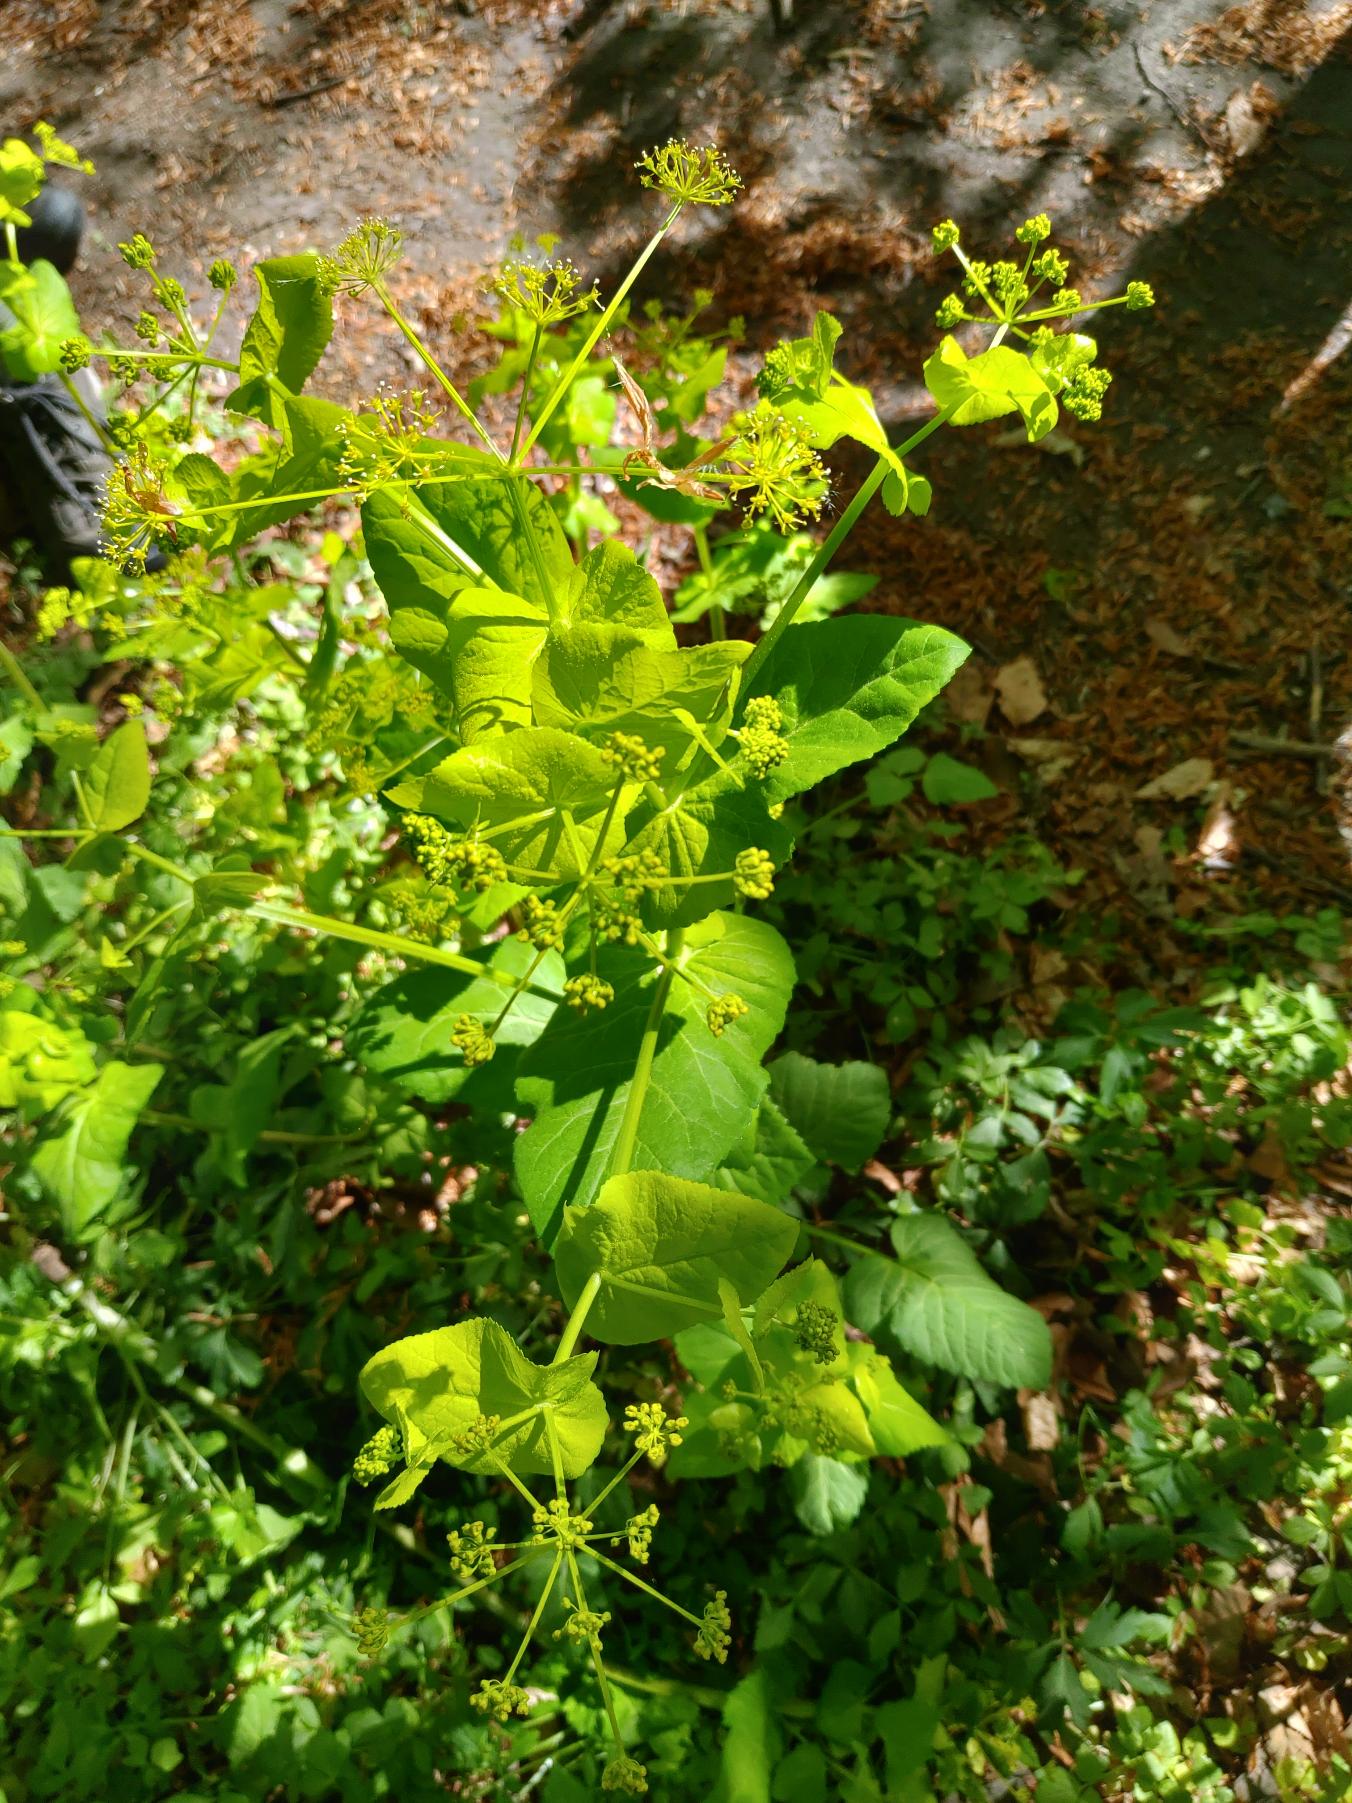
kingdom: Plantae
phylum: Tracheophyta
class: Magnoliopsida
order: Apiales
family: Apiaceae
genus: Smyrnium
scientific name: Smyrnium perfoliatum
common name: Lundgylden
